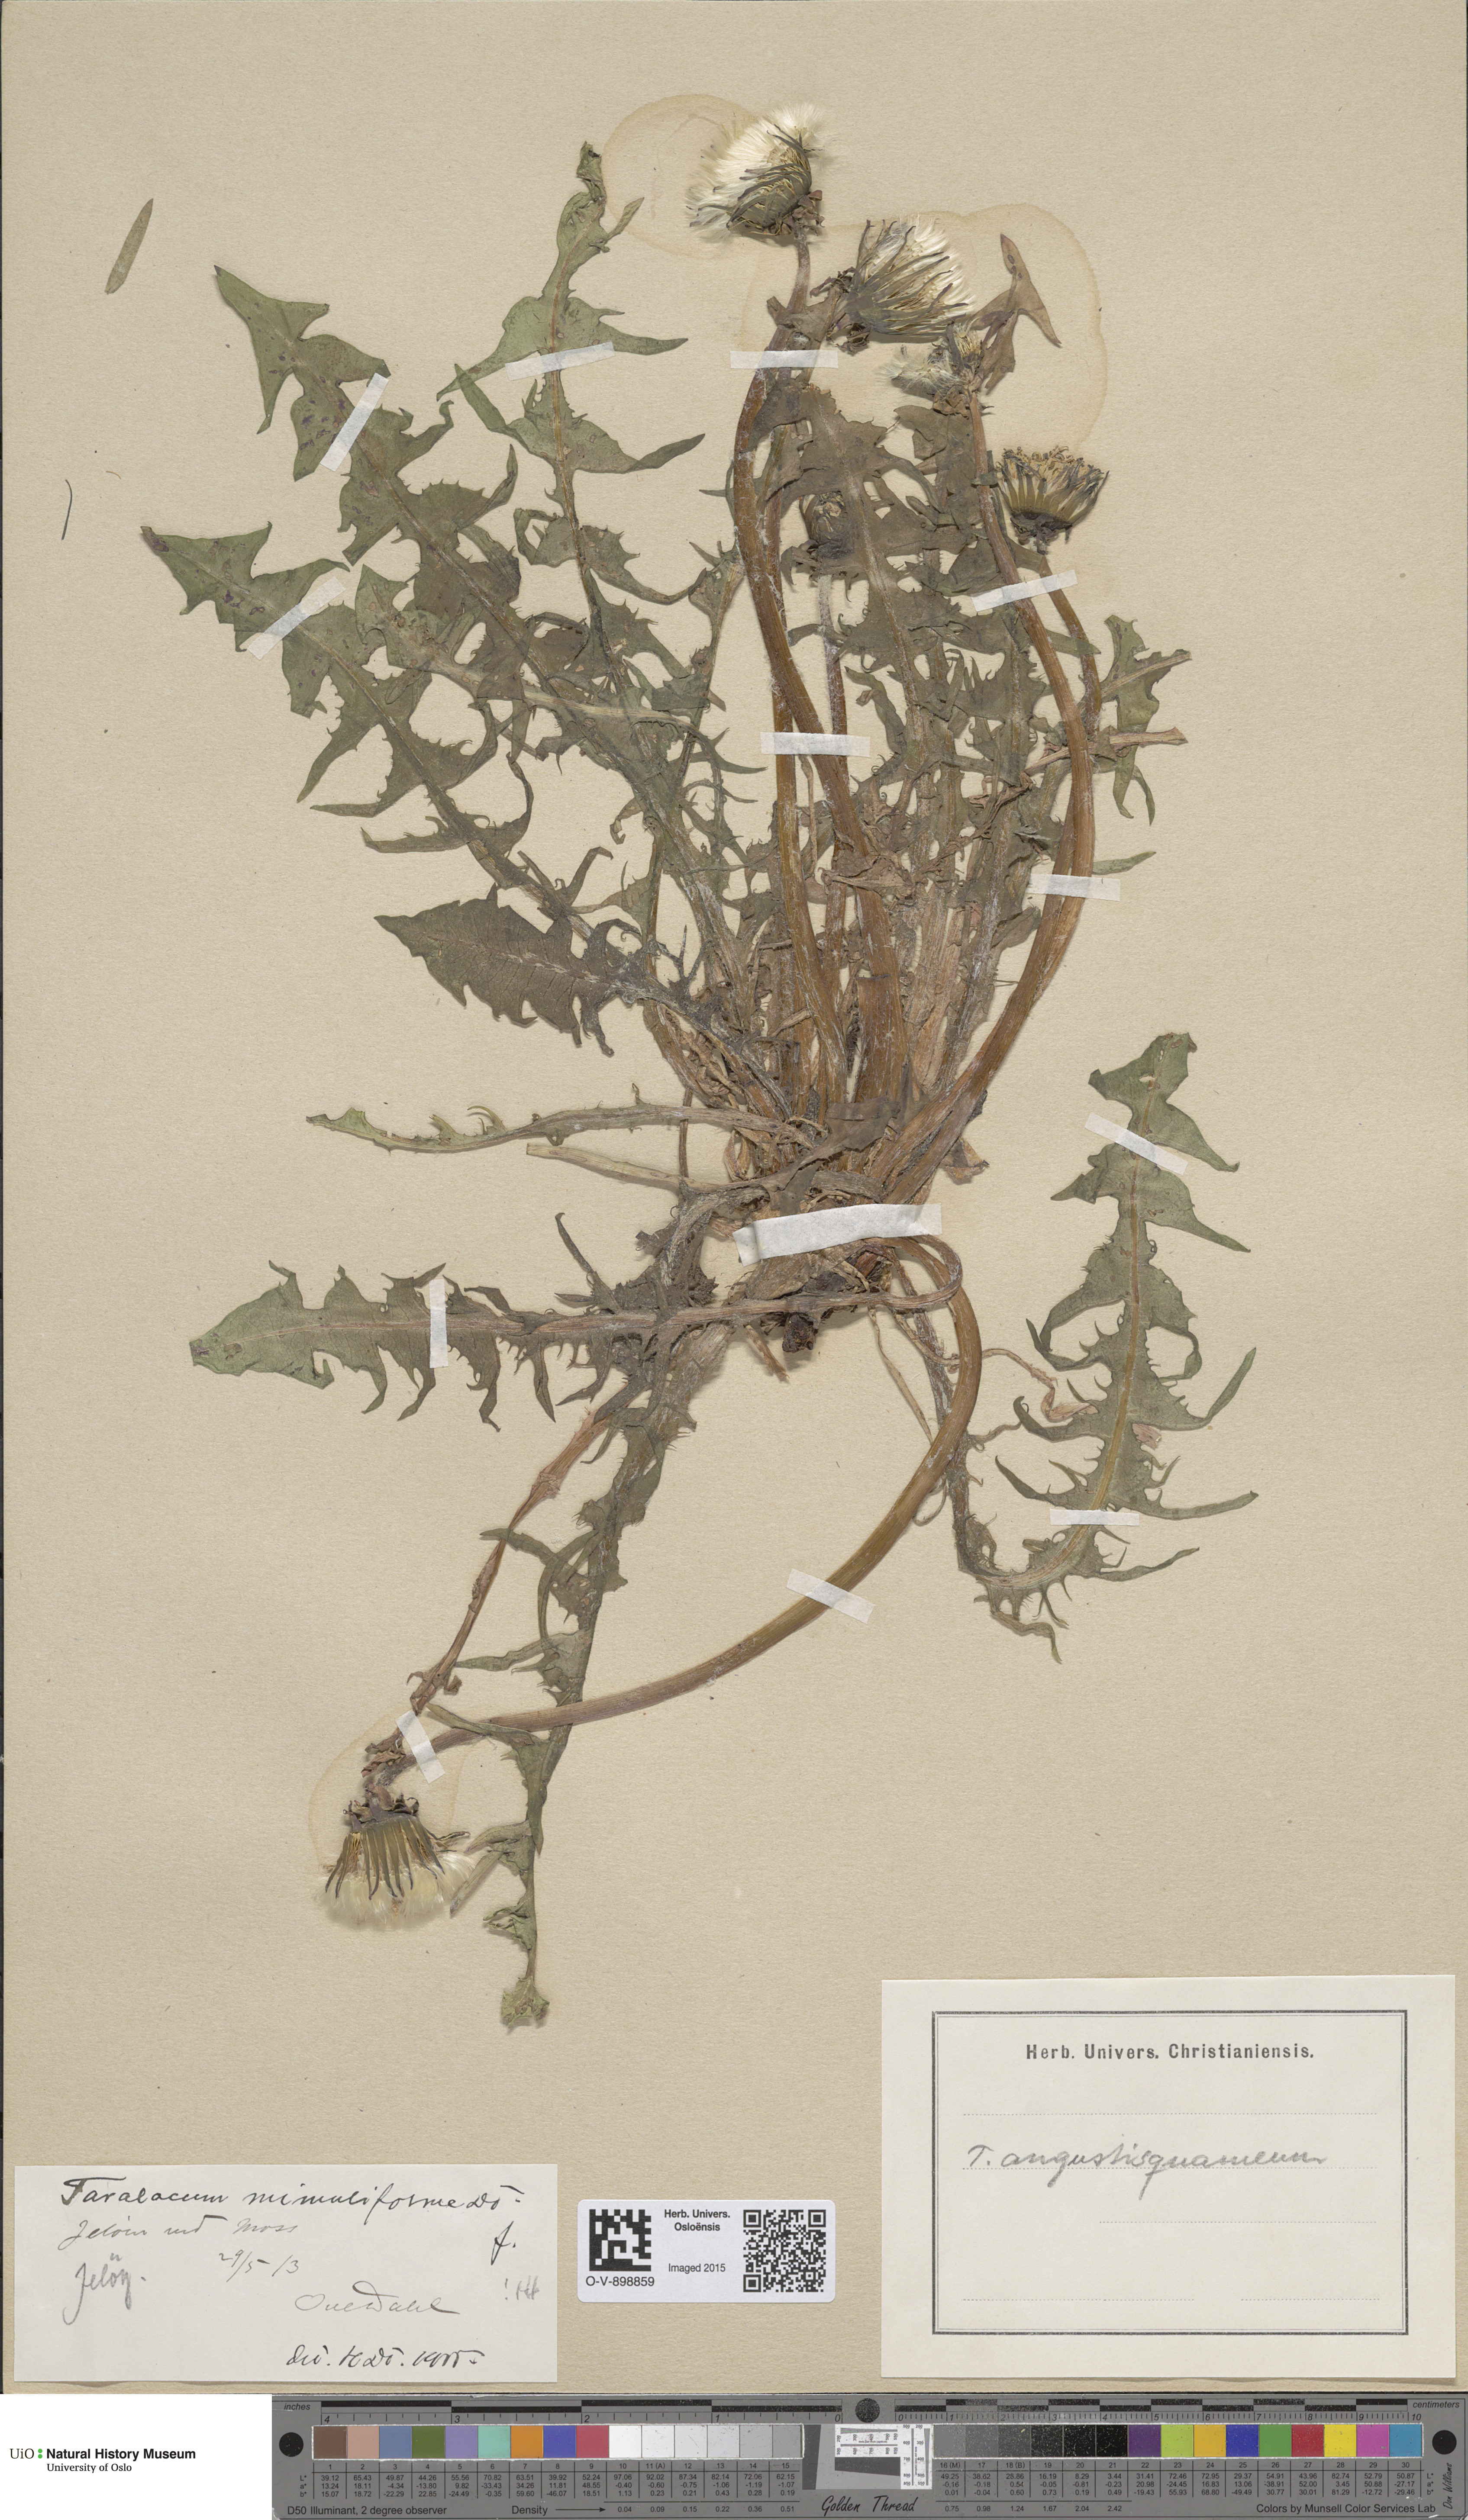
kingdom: Plantae
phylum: Tracheophyta
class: Magnoliopsida
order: Asterales
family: Asteraceae
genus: Taraxacum
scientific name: Taraxacum angustisquameum
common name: Multilobed dandelion
